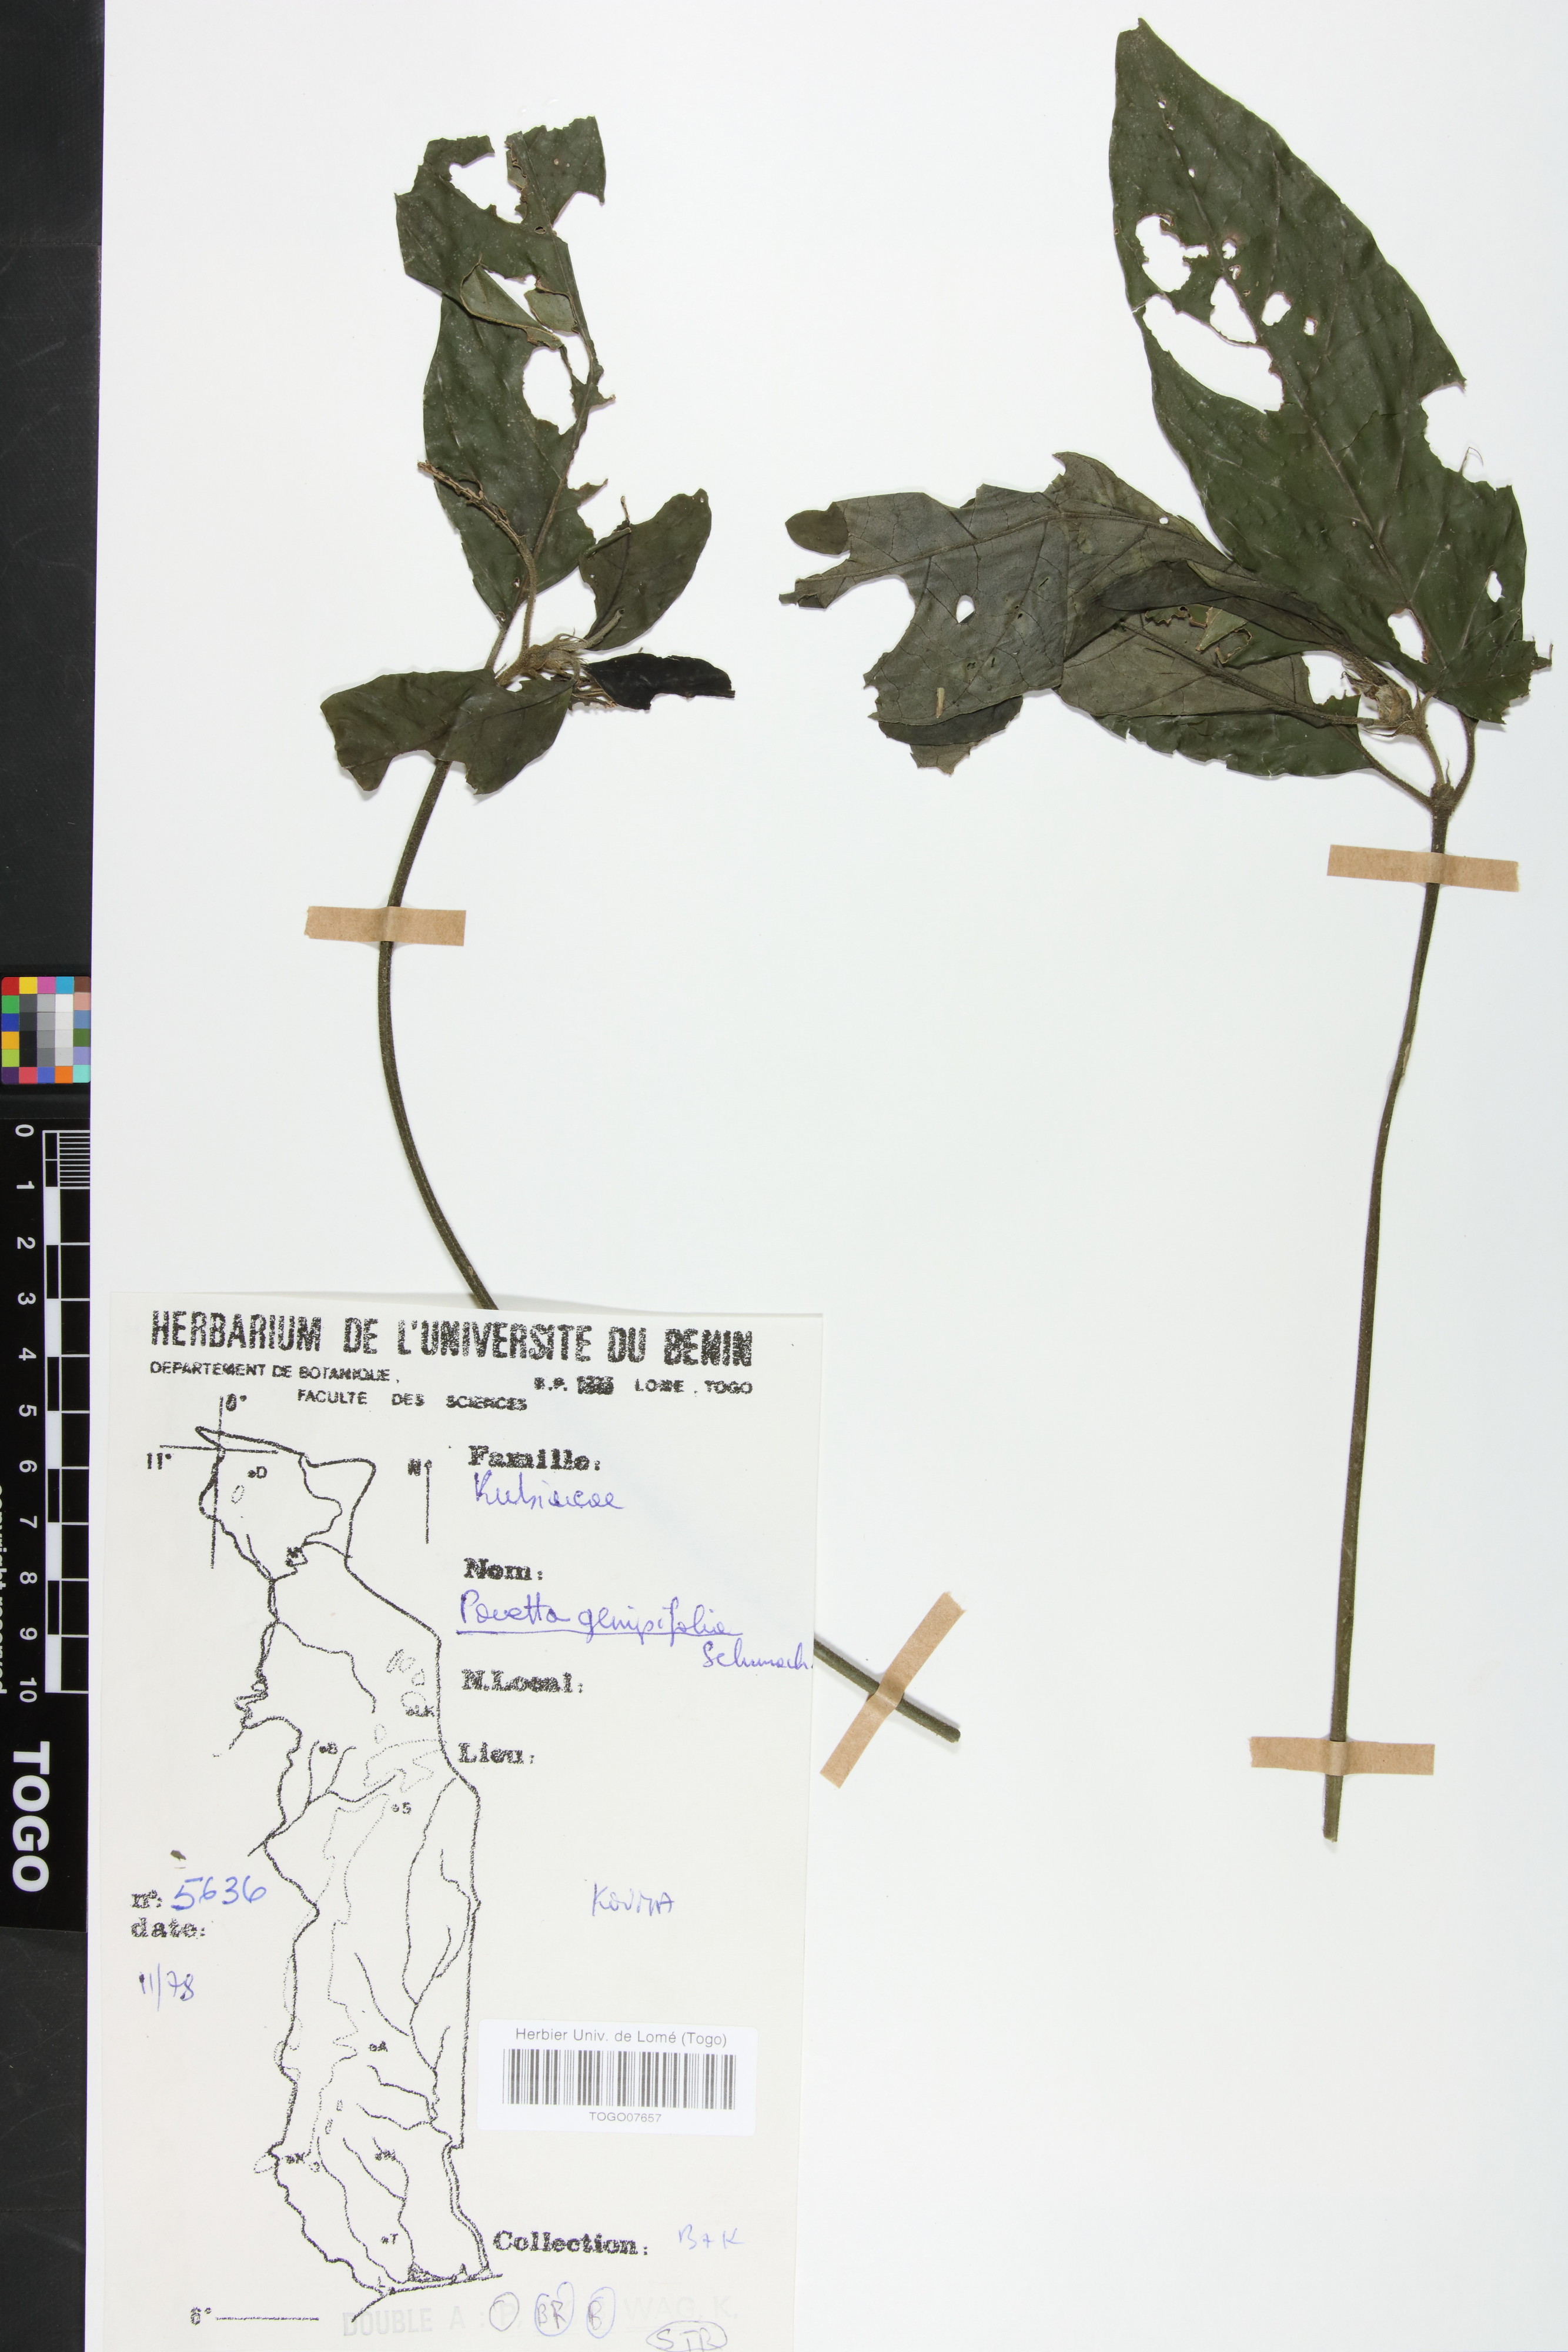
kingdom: Plantae
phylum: Tracheophyta
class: Magnoliopsida
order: Gentianales
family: Rubiaceae
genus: Pavetta
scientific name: Pavetta genipifolia
